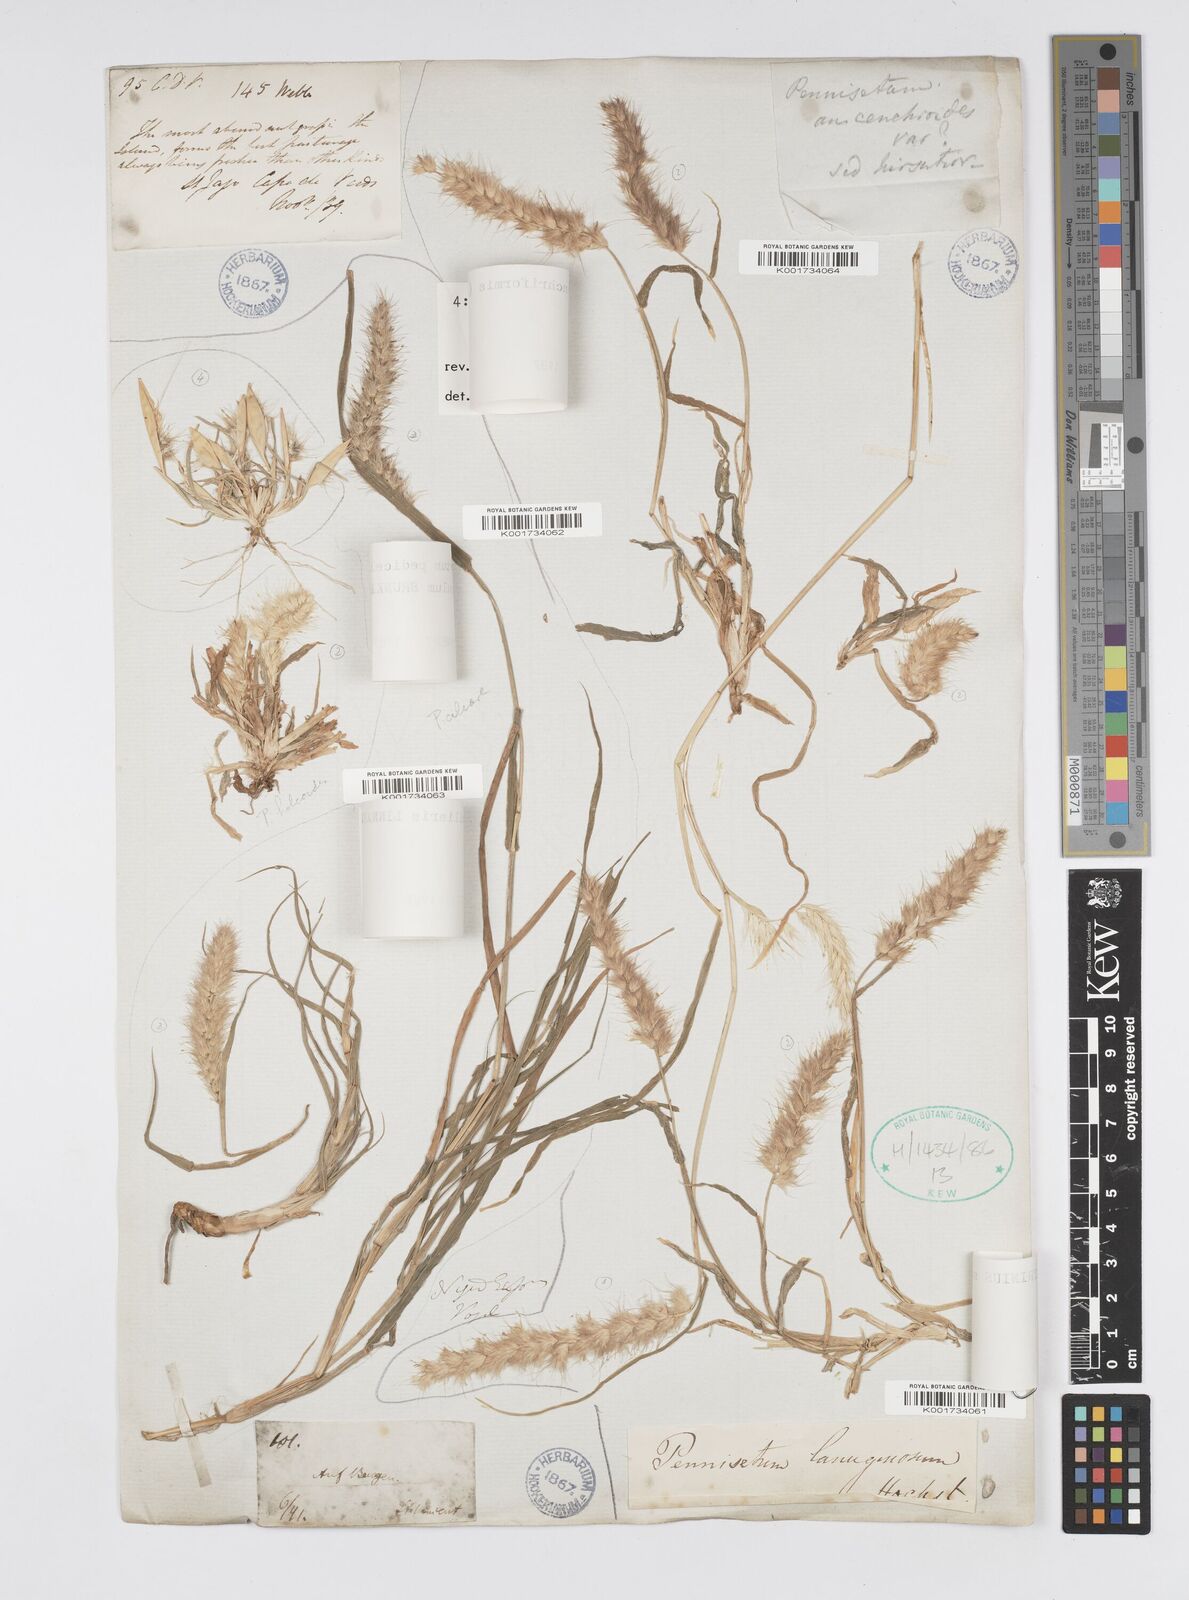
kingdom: Plantae
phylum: Tracheophyta
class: Liliopsida
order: Poales
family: Poaceae
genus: Cenchrus
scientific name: Cenchrus pedicellatus
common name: Hairy fountain grass
